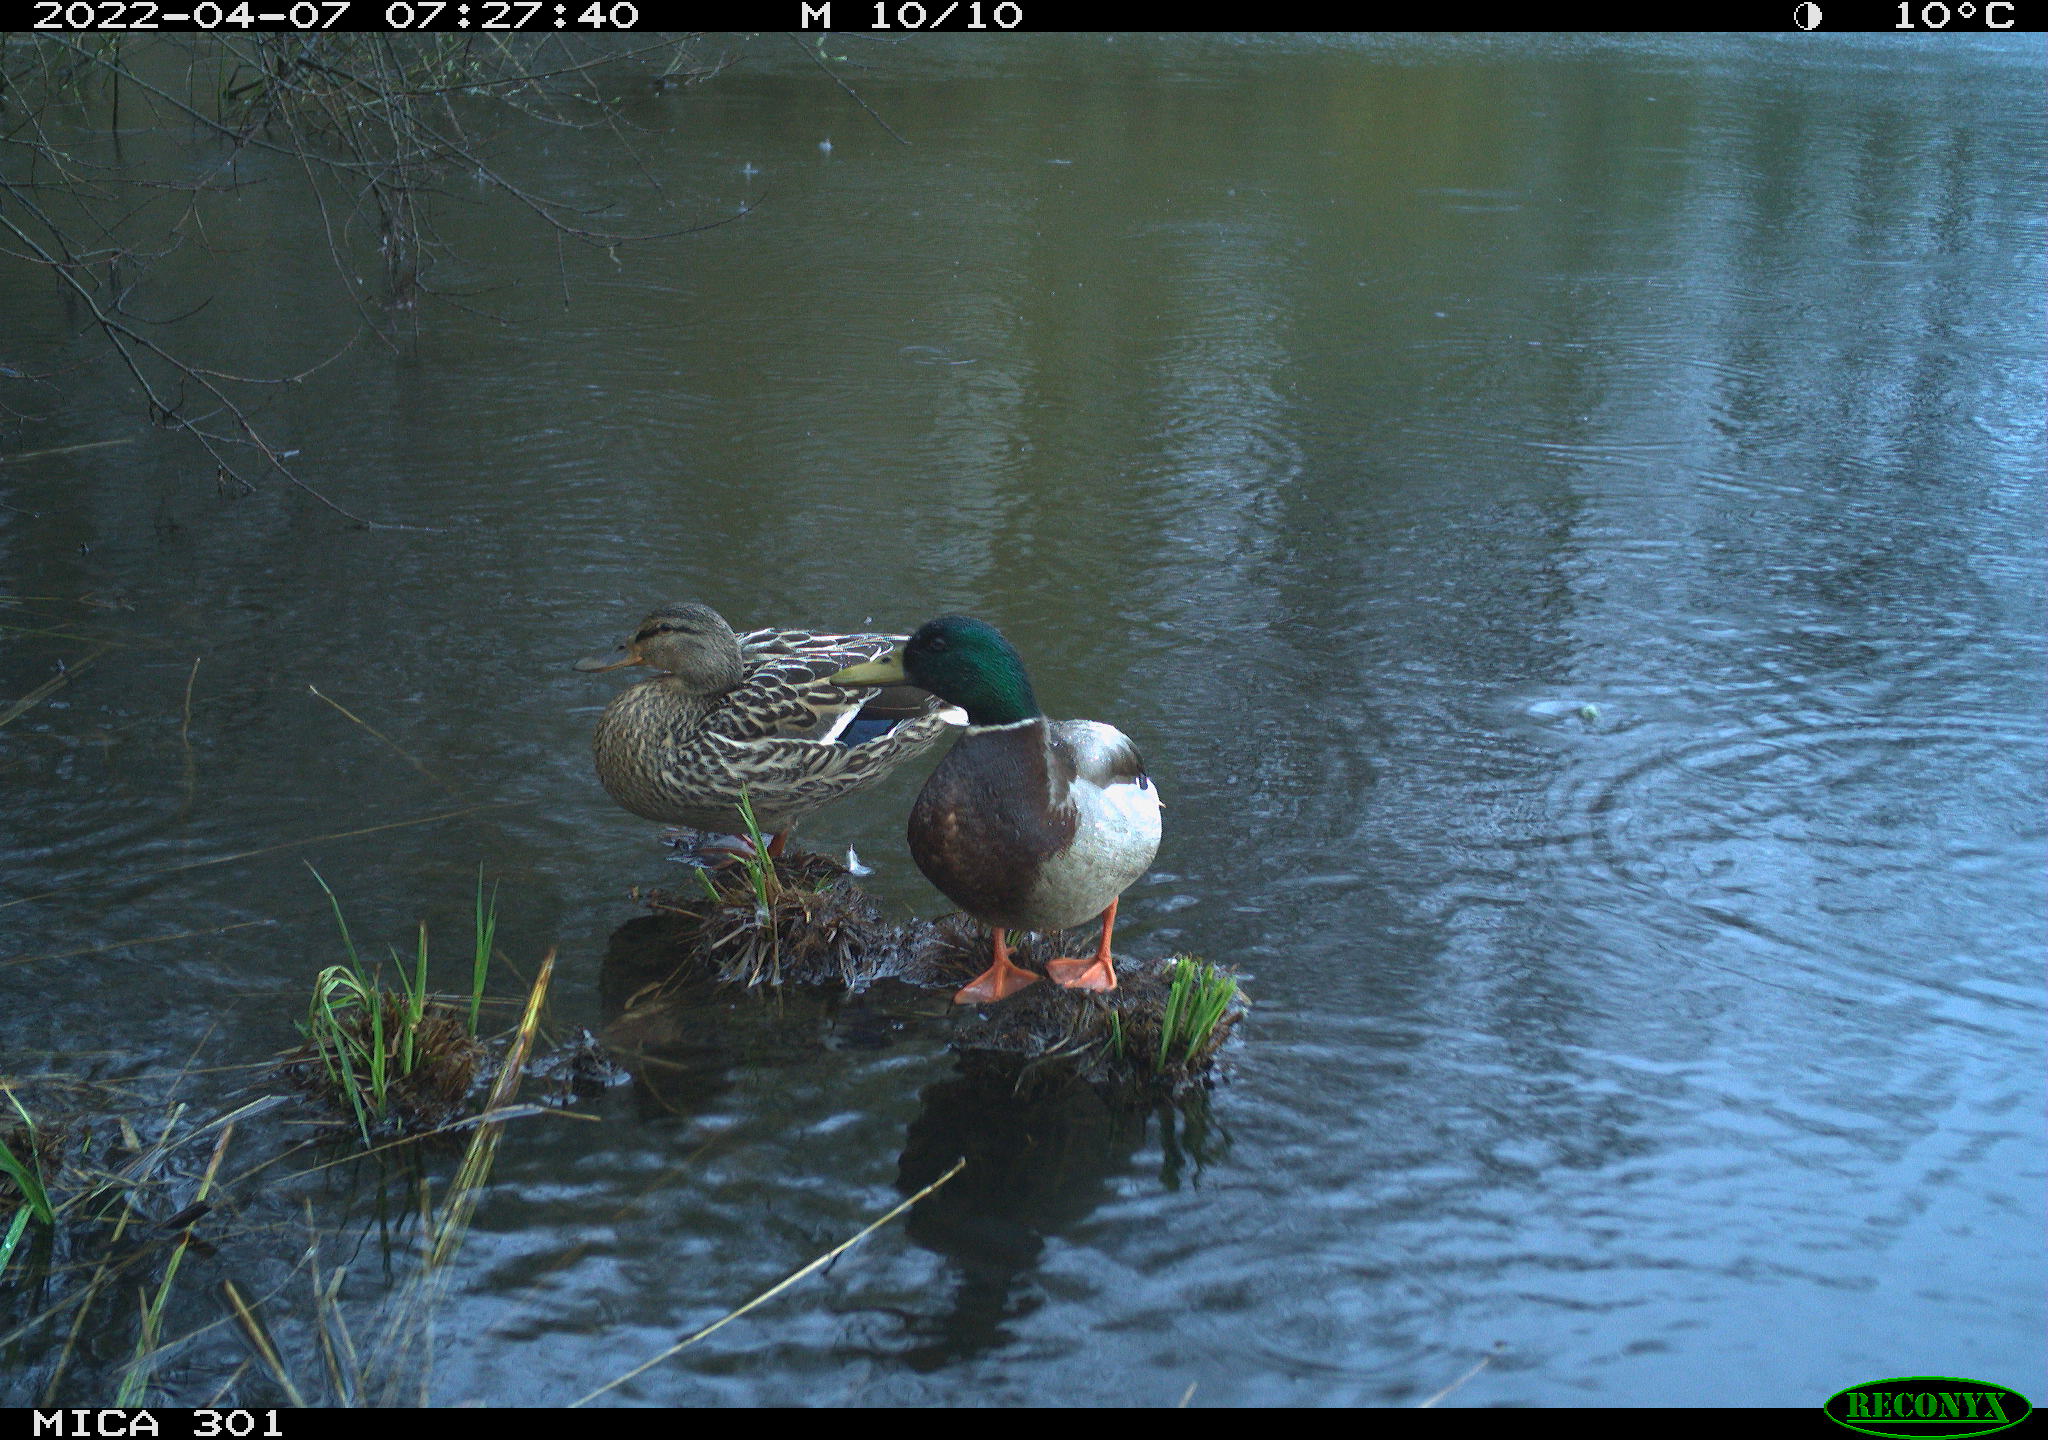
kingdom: Animalia
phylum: Chordata
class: Aves
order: Anseriformes
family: Anatidae
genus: Anas
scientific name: Anas platyrhynchos
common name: Mallard
